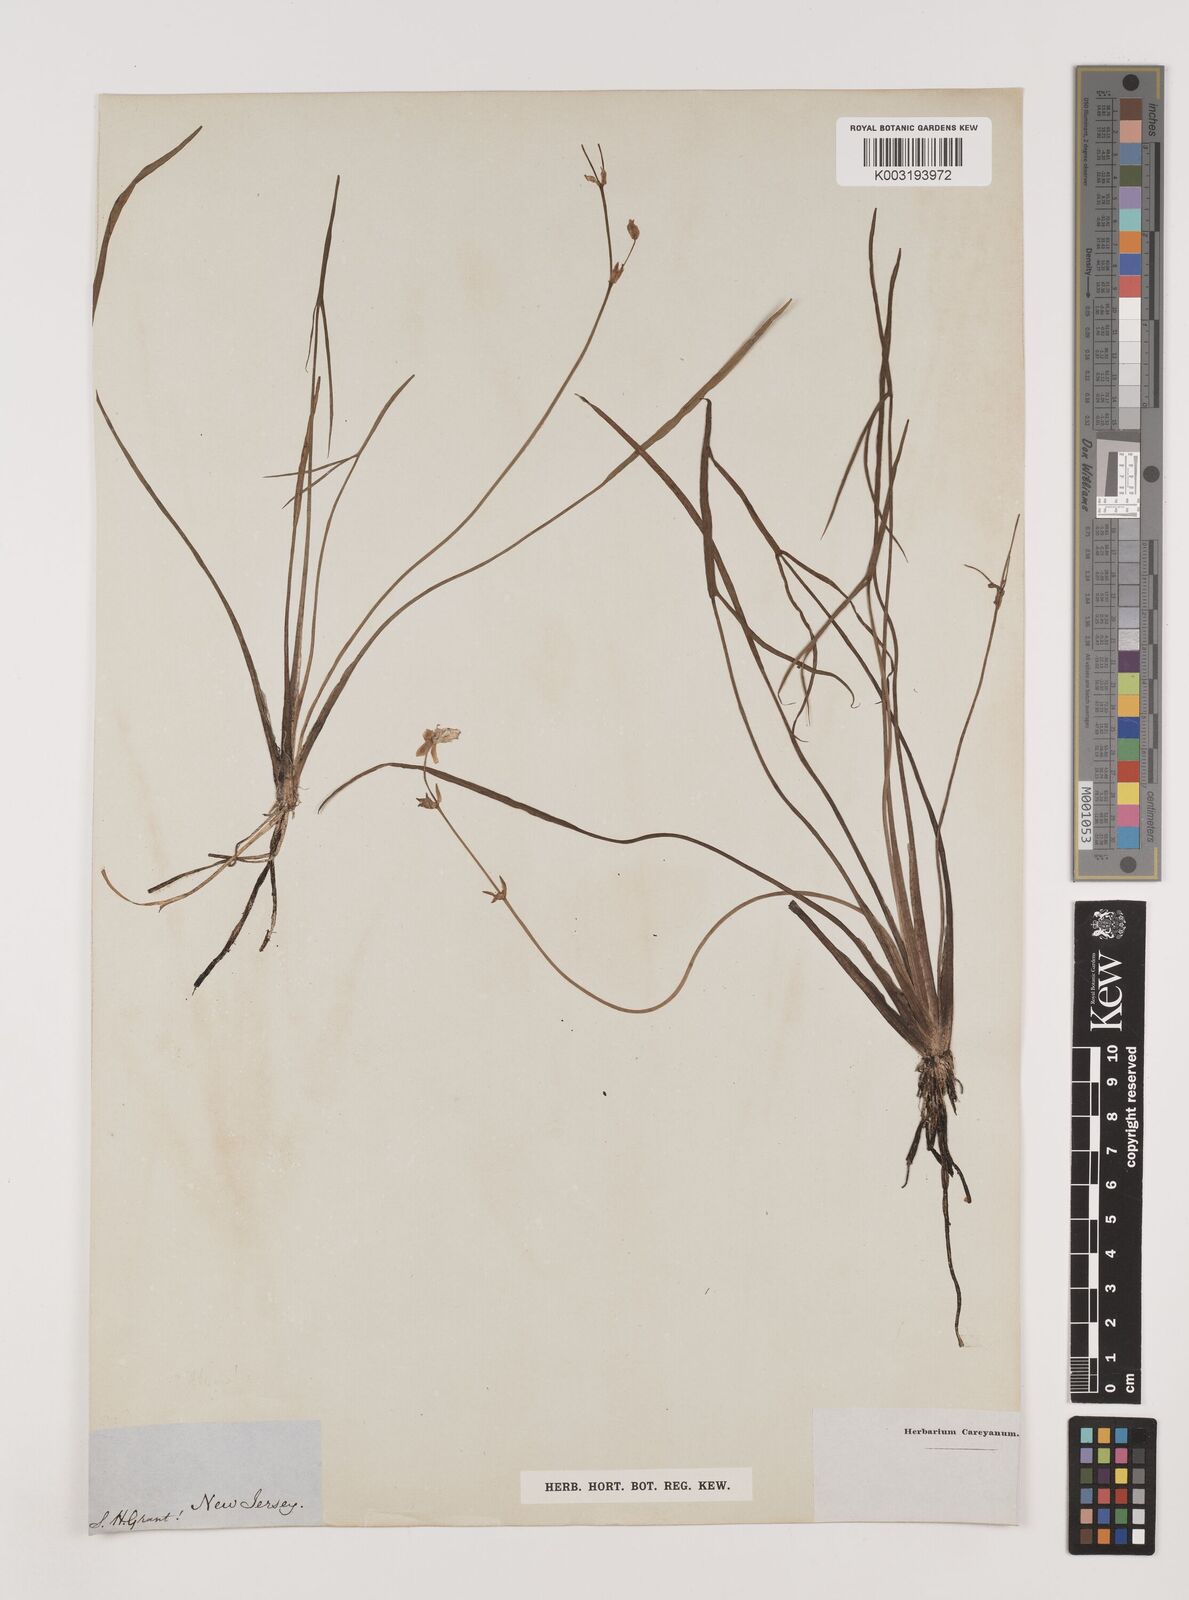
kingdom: Plantae
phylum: Tracheophyta
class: Liliopsida
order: Alismatales
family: Alismataceae
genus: Sagittaria
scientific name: Sagittaria
